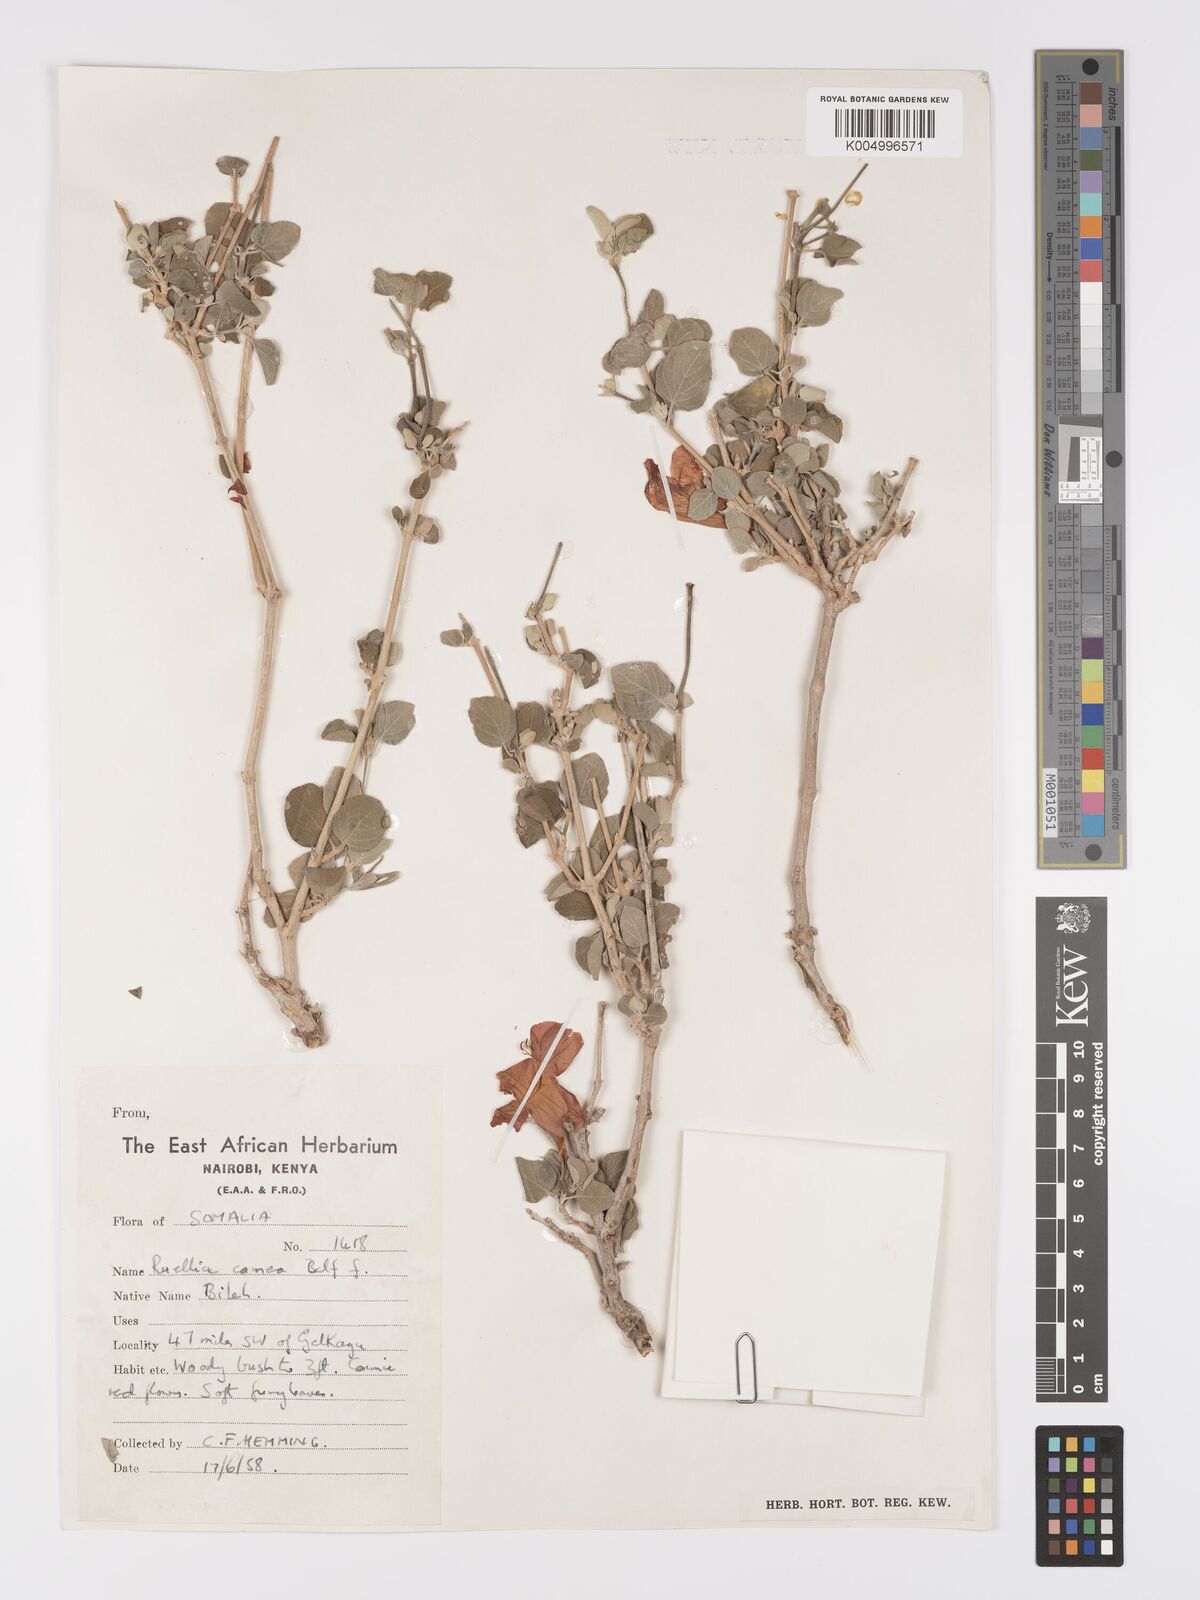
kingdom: Plantae
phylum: Tracheophyta
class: Magnoliopsida
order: Lamiales
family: Acanthaceae
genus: Ruellia
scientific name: Ruellia carnea
